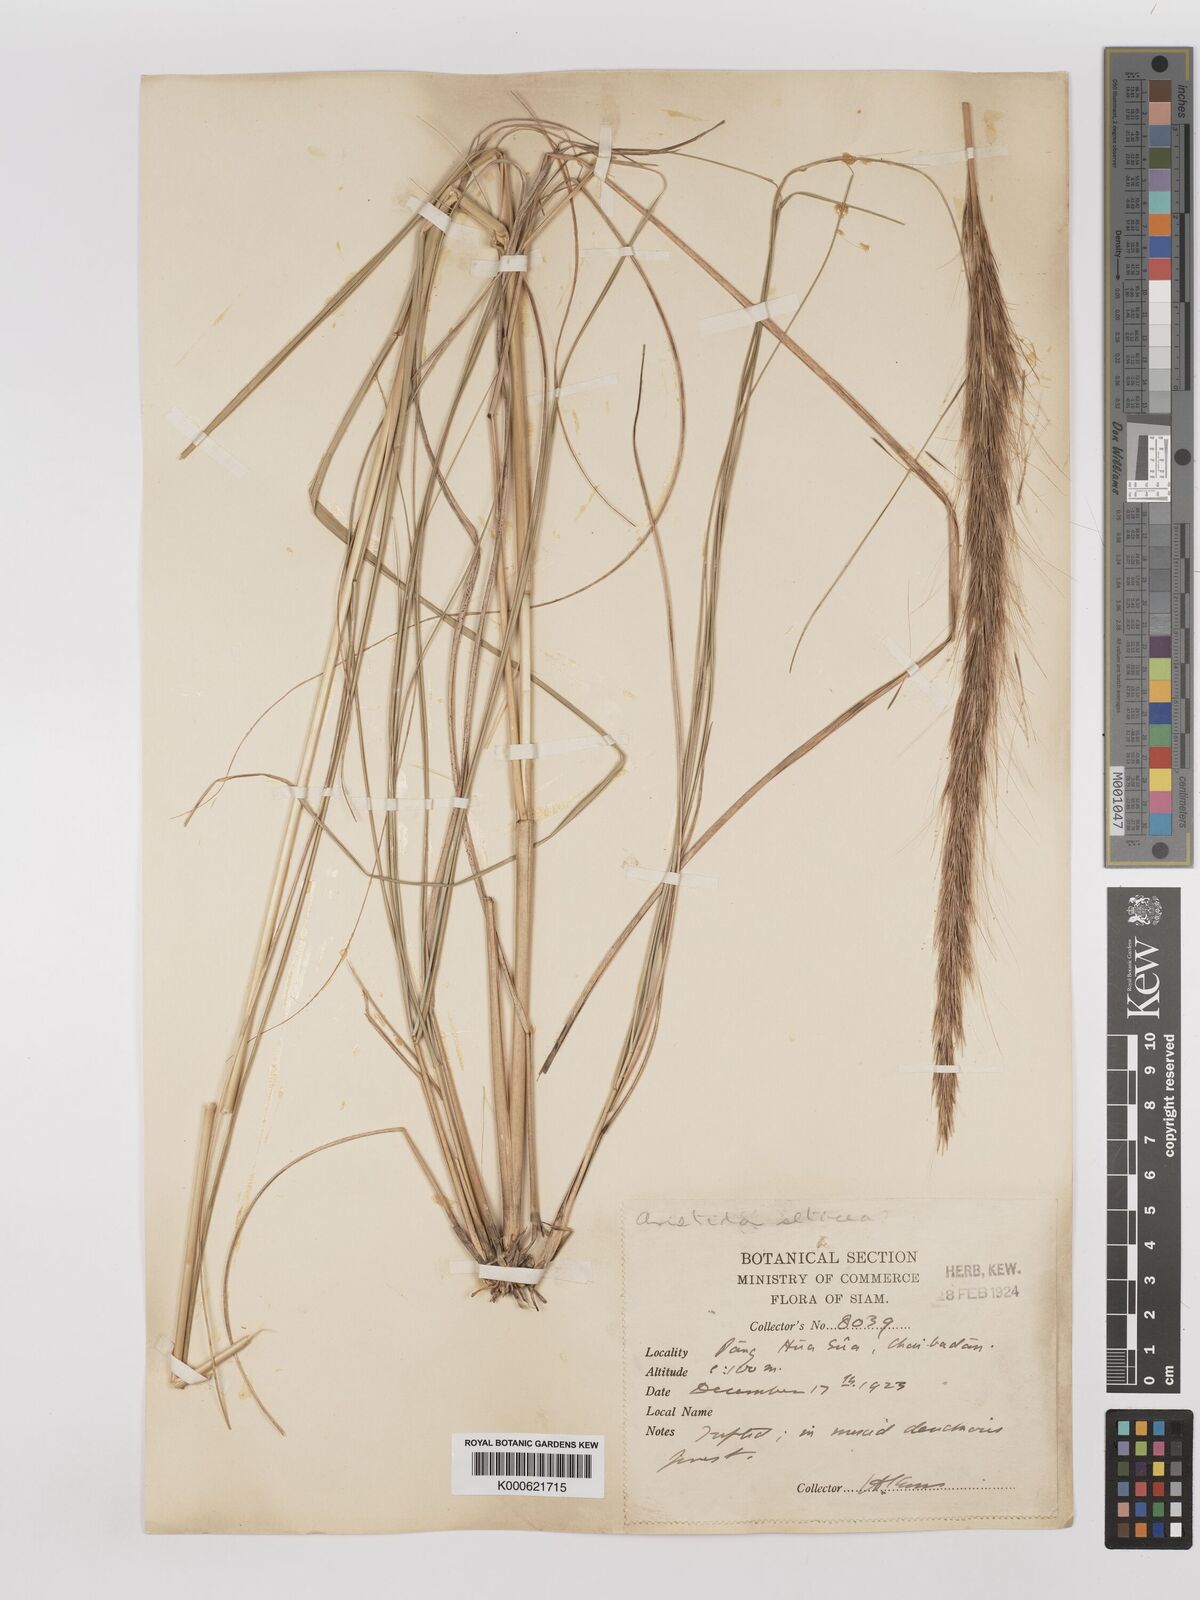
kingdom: Plantae
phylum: Tracheophyta
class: Liliopsida
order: Poales
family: Poaceae
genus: Aristida
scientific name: Aristida balansae
